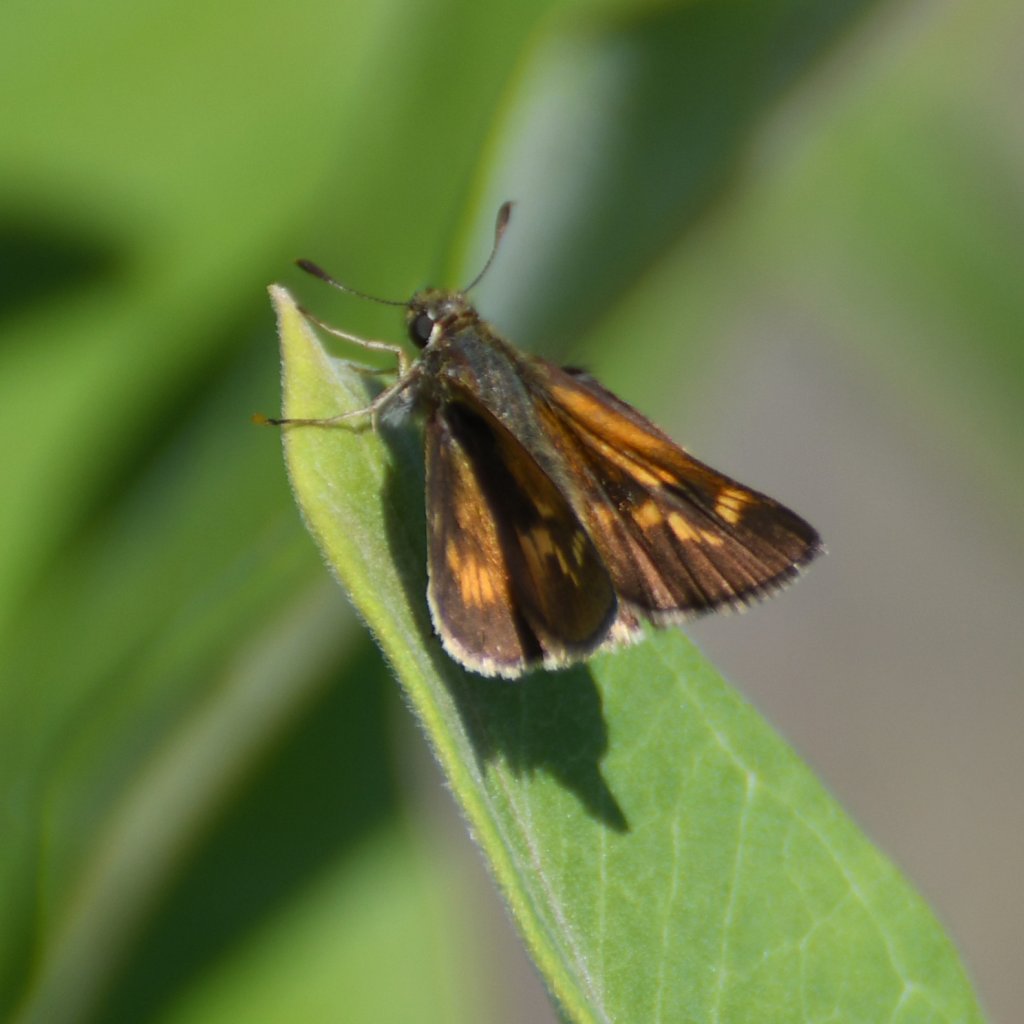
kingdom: Animalia
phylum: Arthropoda
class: Insecta
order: Lepidoptera
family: Hesperiidae
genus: Polites
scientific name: Polites
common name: Long Dash Skipper
